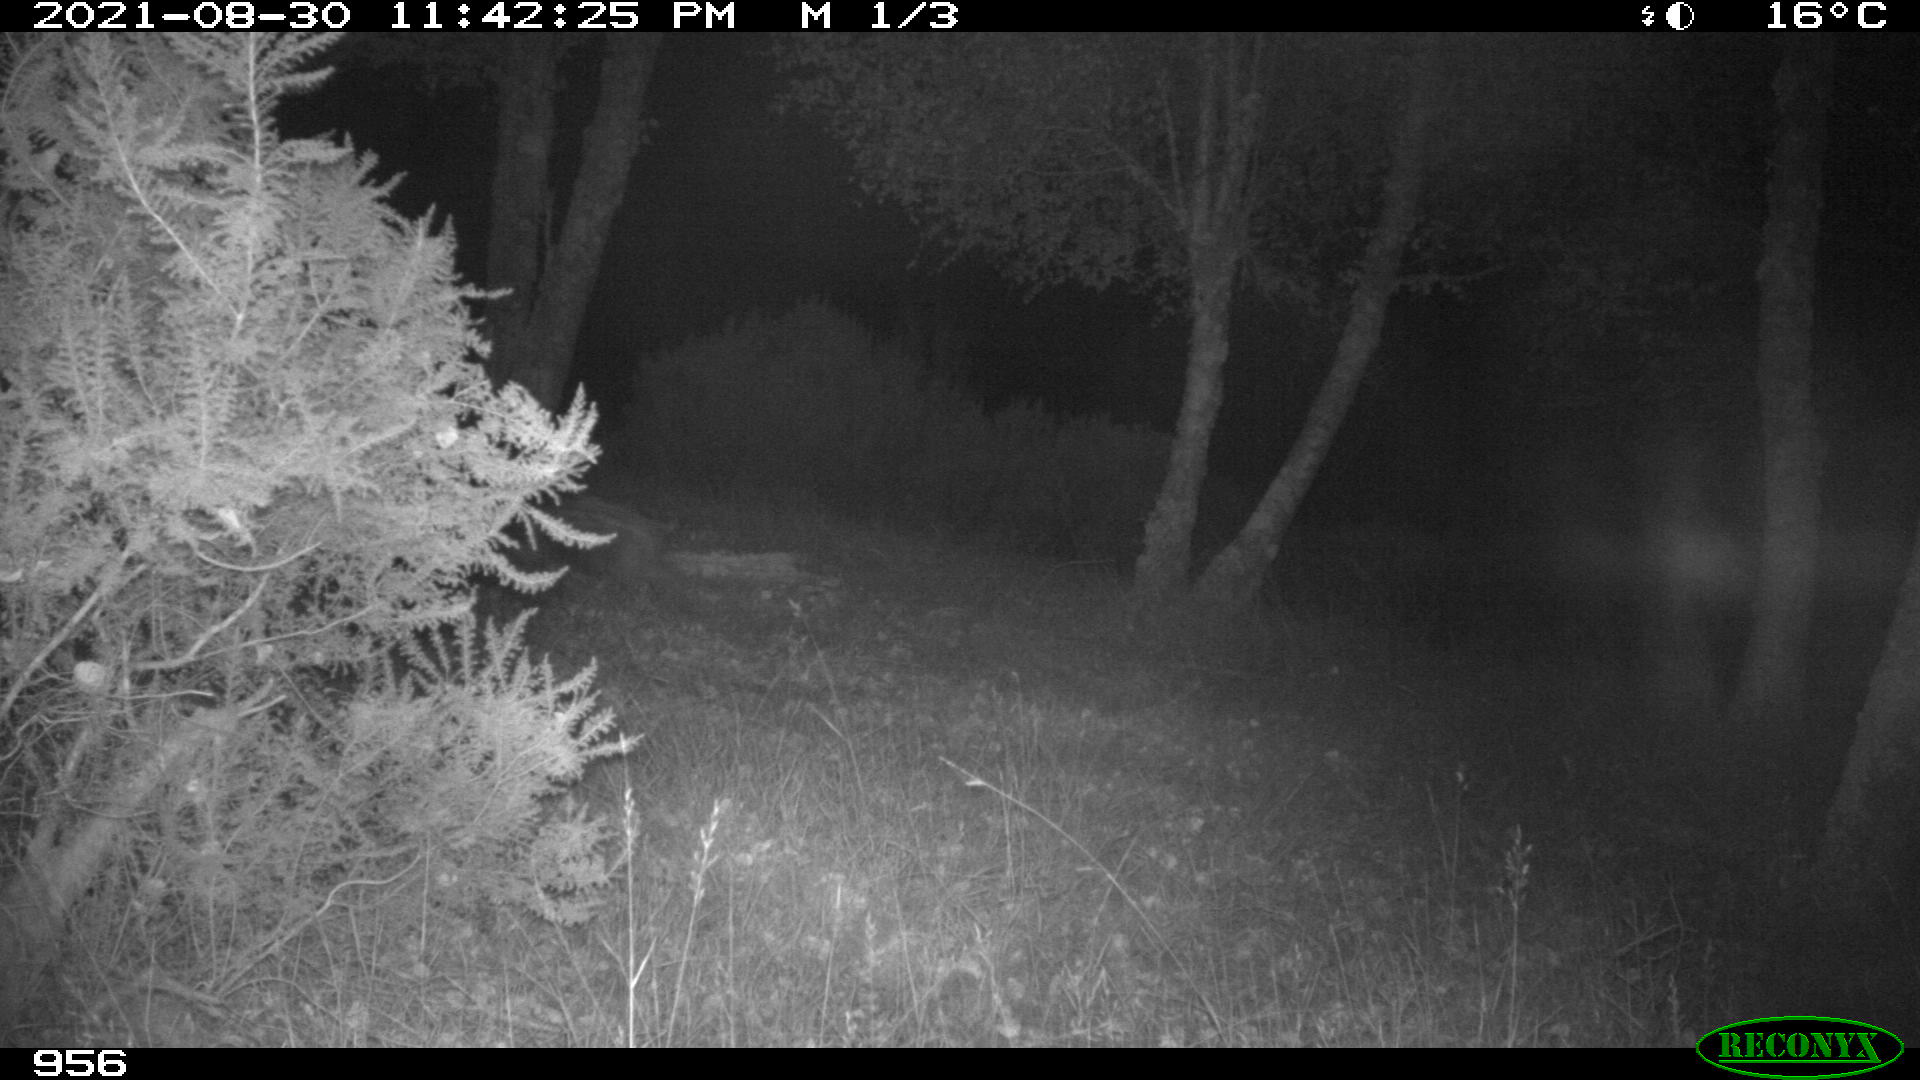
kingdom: Animalia
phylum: Chordata
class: Mammalia
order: Artiodactyla
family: Suidae
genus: Sus
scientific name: Sus scrofa
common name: Wild boar
